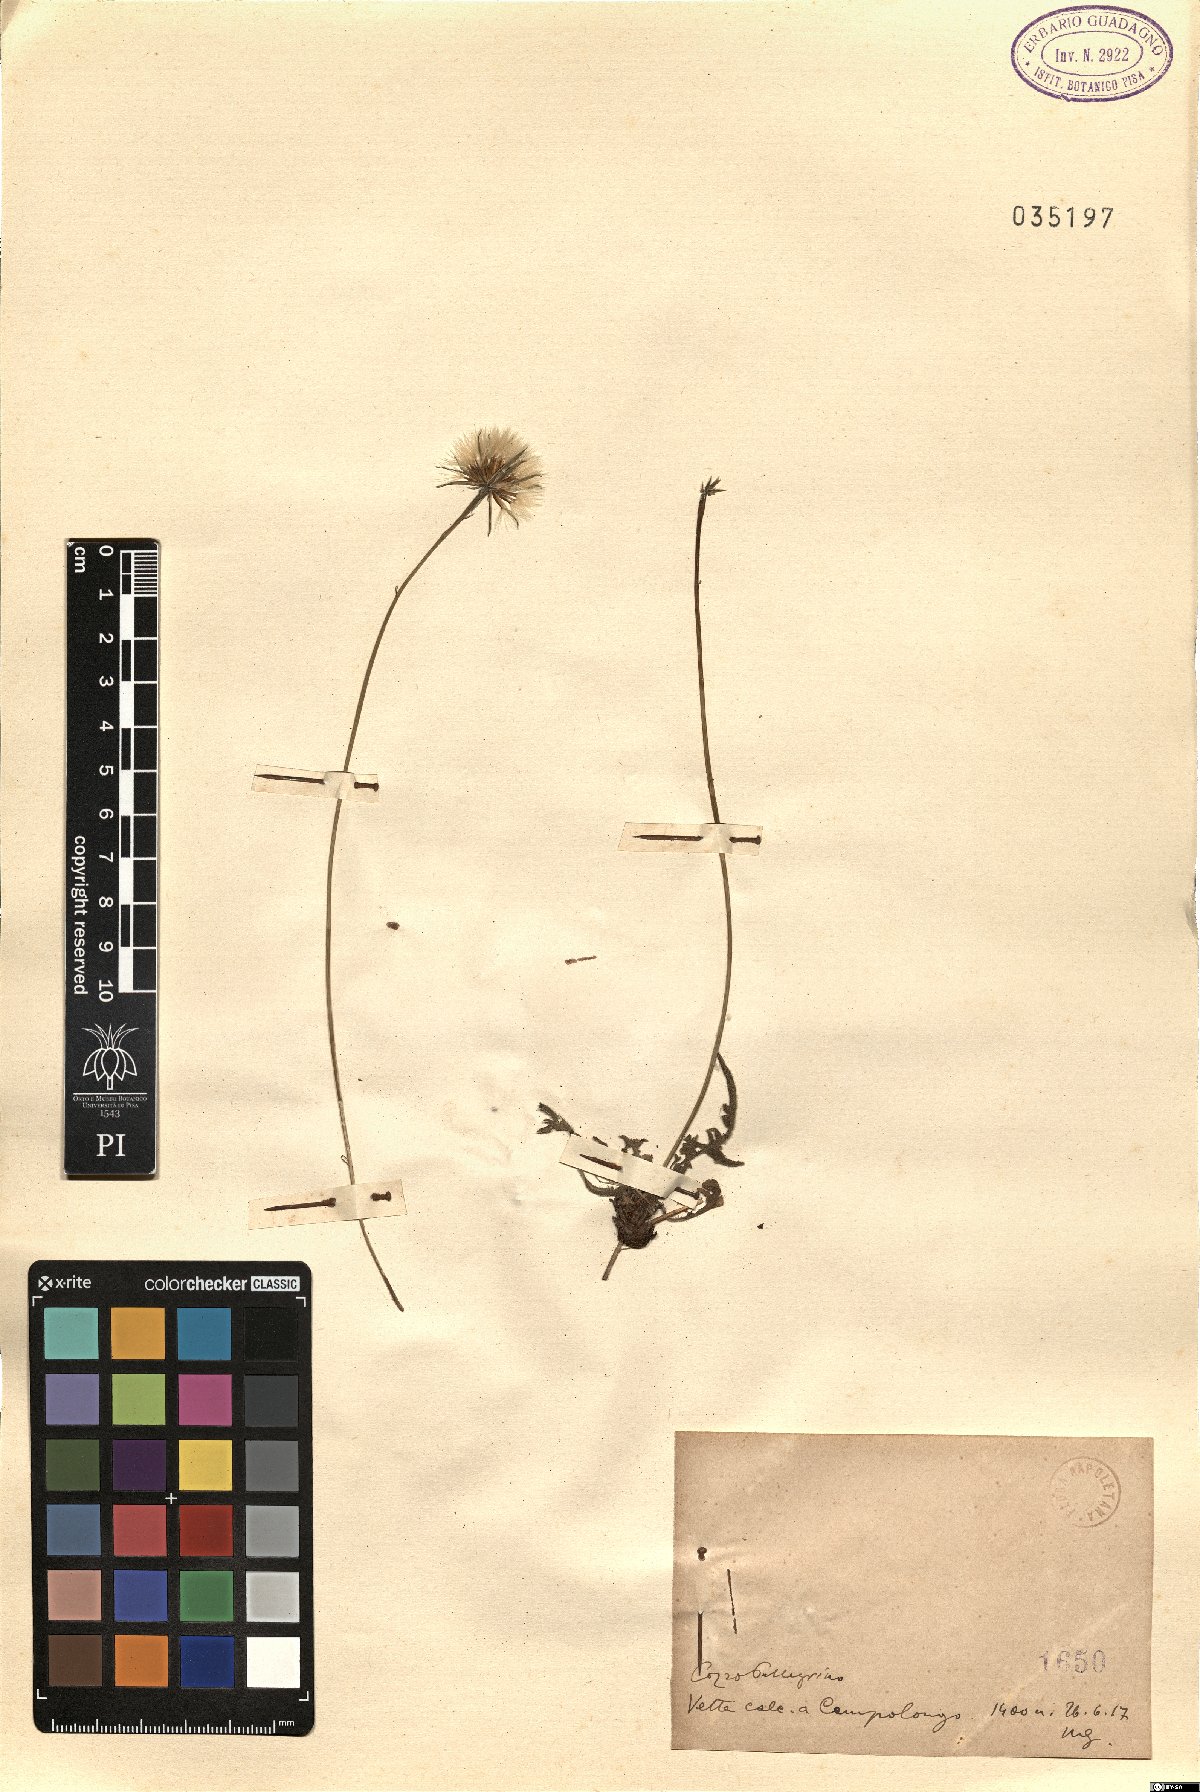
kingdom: Plantae
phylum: Tracheophyta
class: Magnoliopsida
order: Asterales
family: Asteraceae
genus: Thrincia
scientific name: Thrincia
